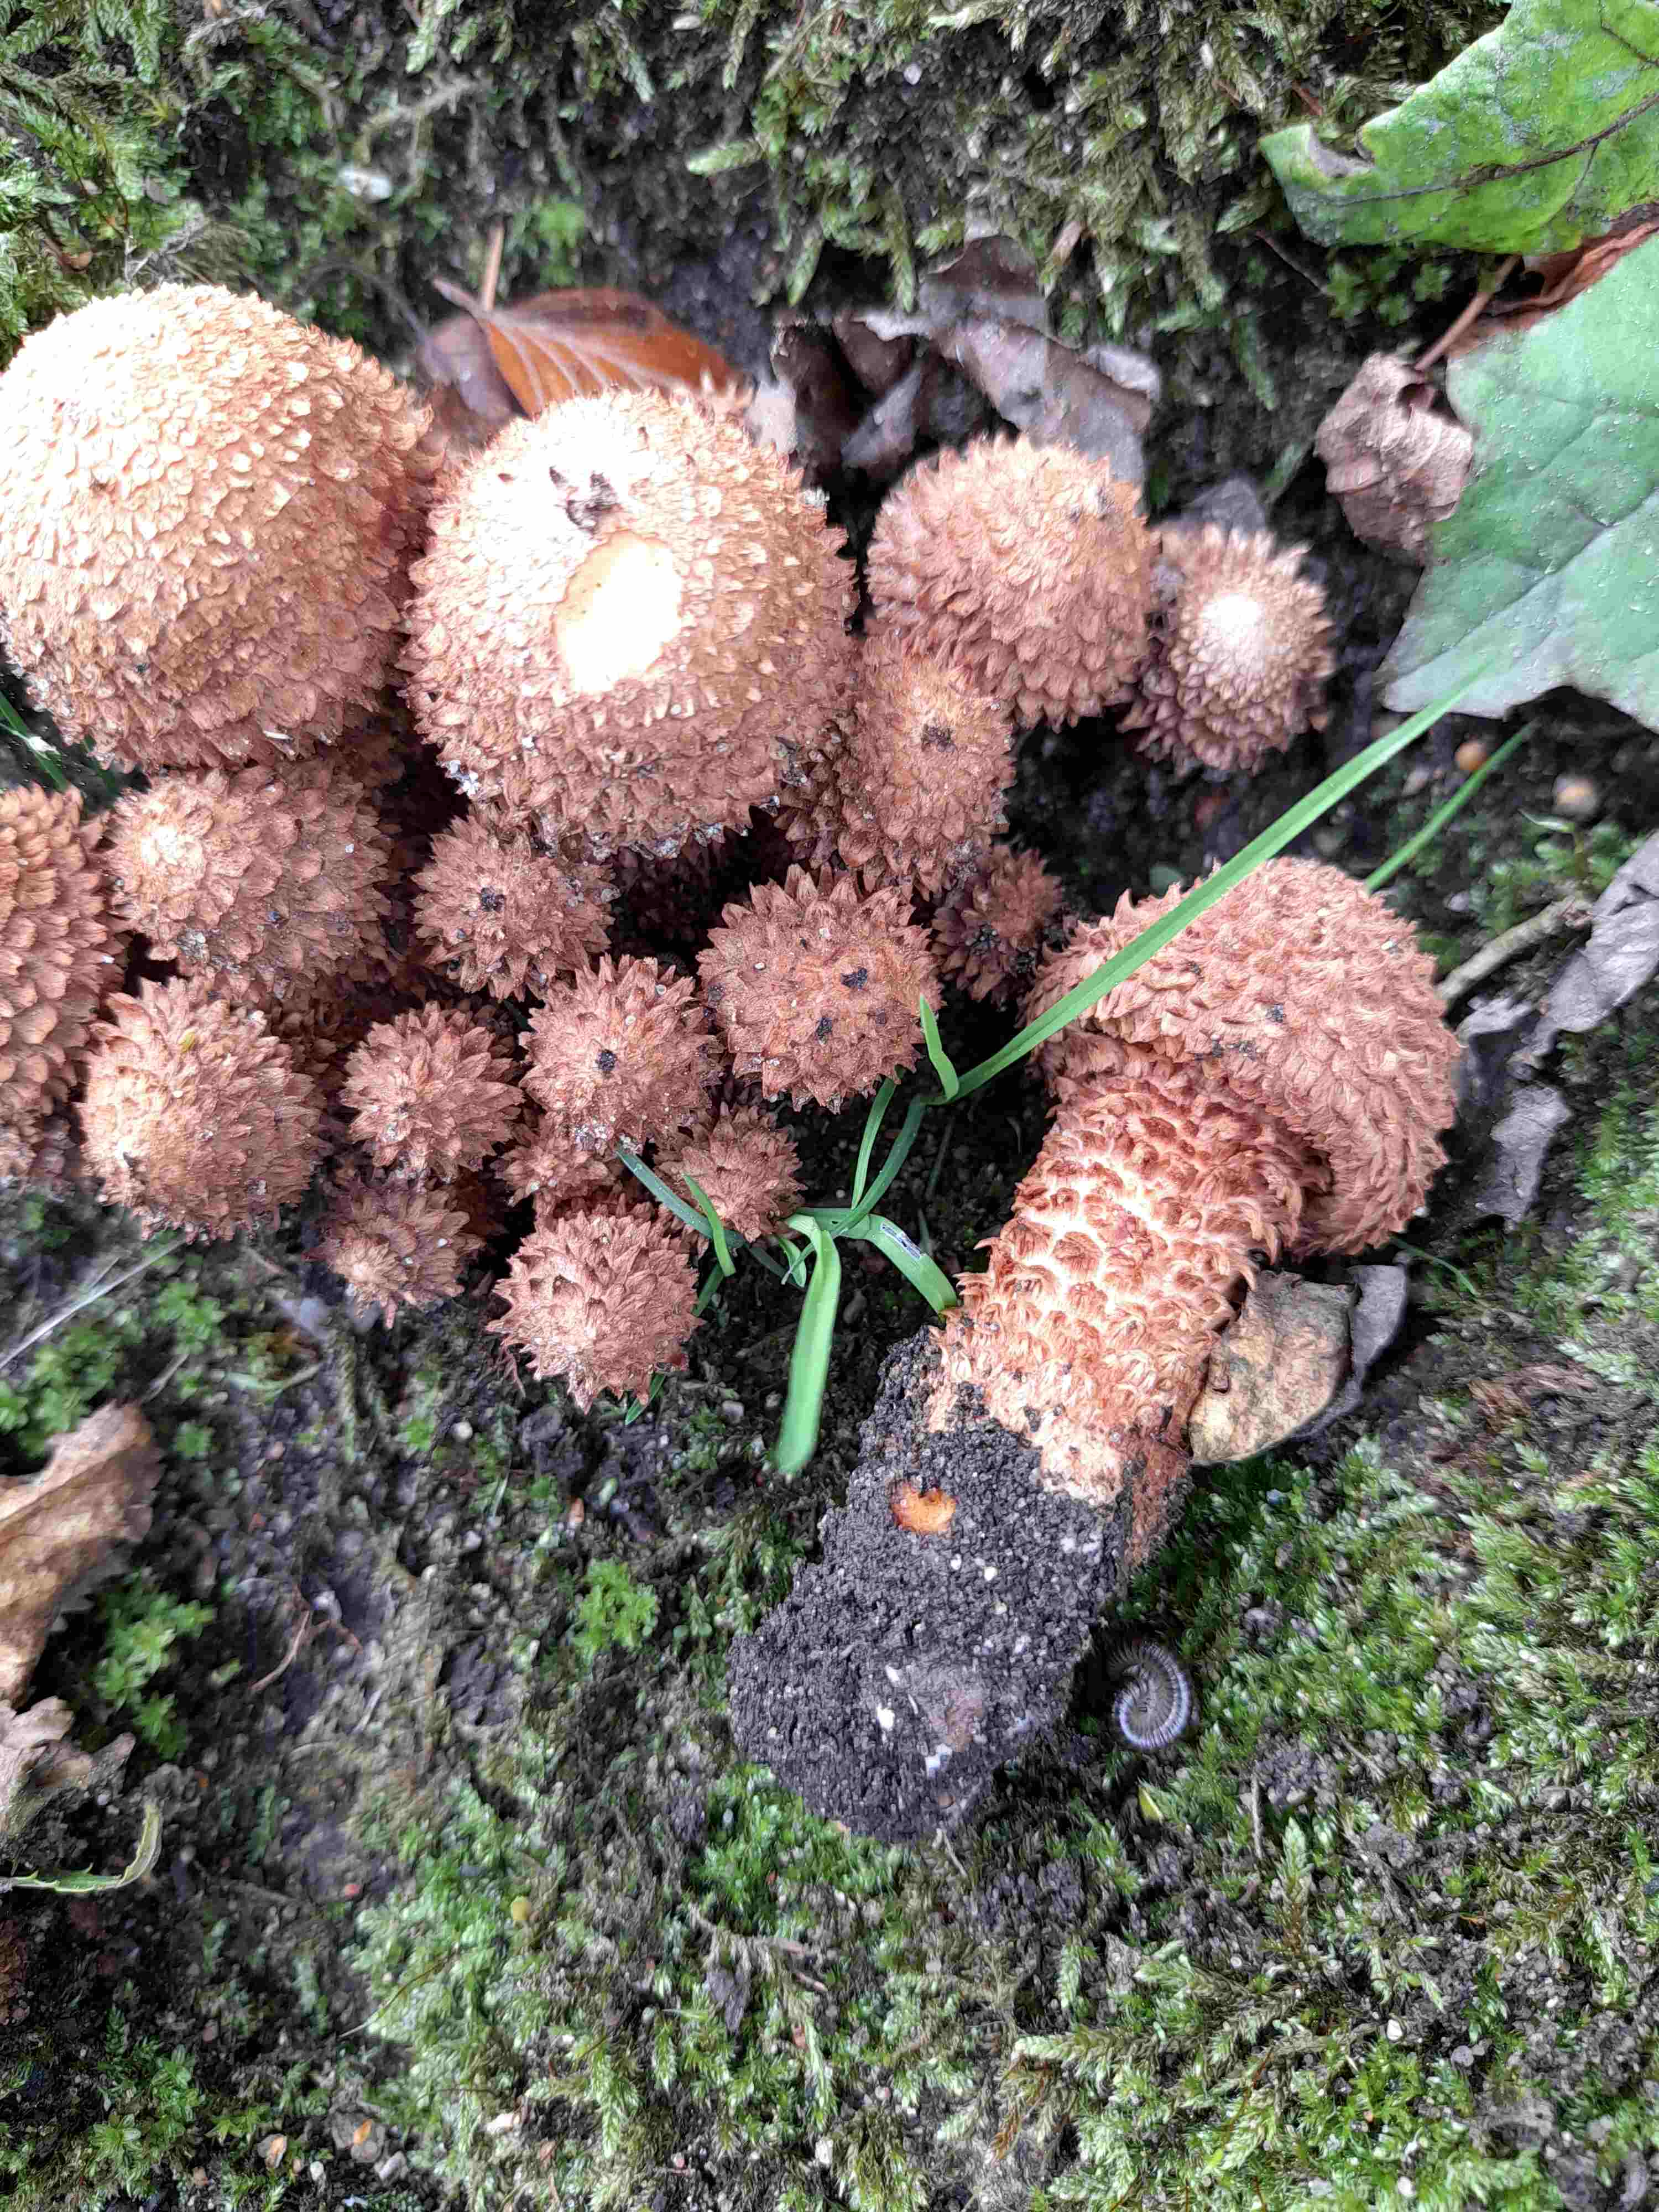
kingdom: Fungi
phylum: Basidiomycota
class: Agaricomycetes
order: Agaricales
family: Strophariaceae
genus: Pholiota
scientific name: Pholiota squarrosa
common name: krumskællet skælhat
